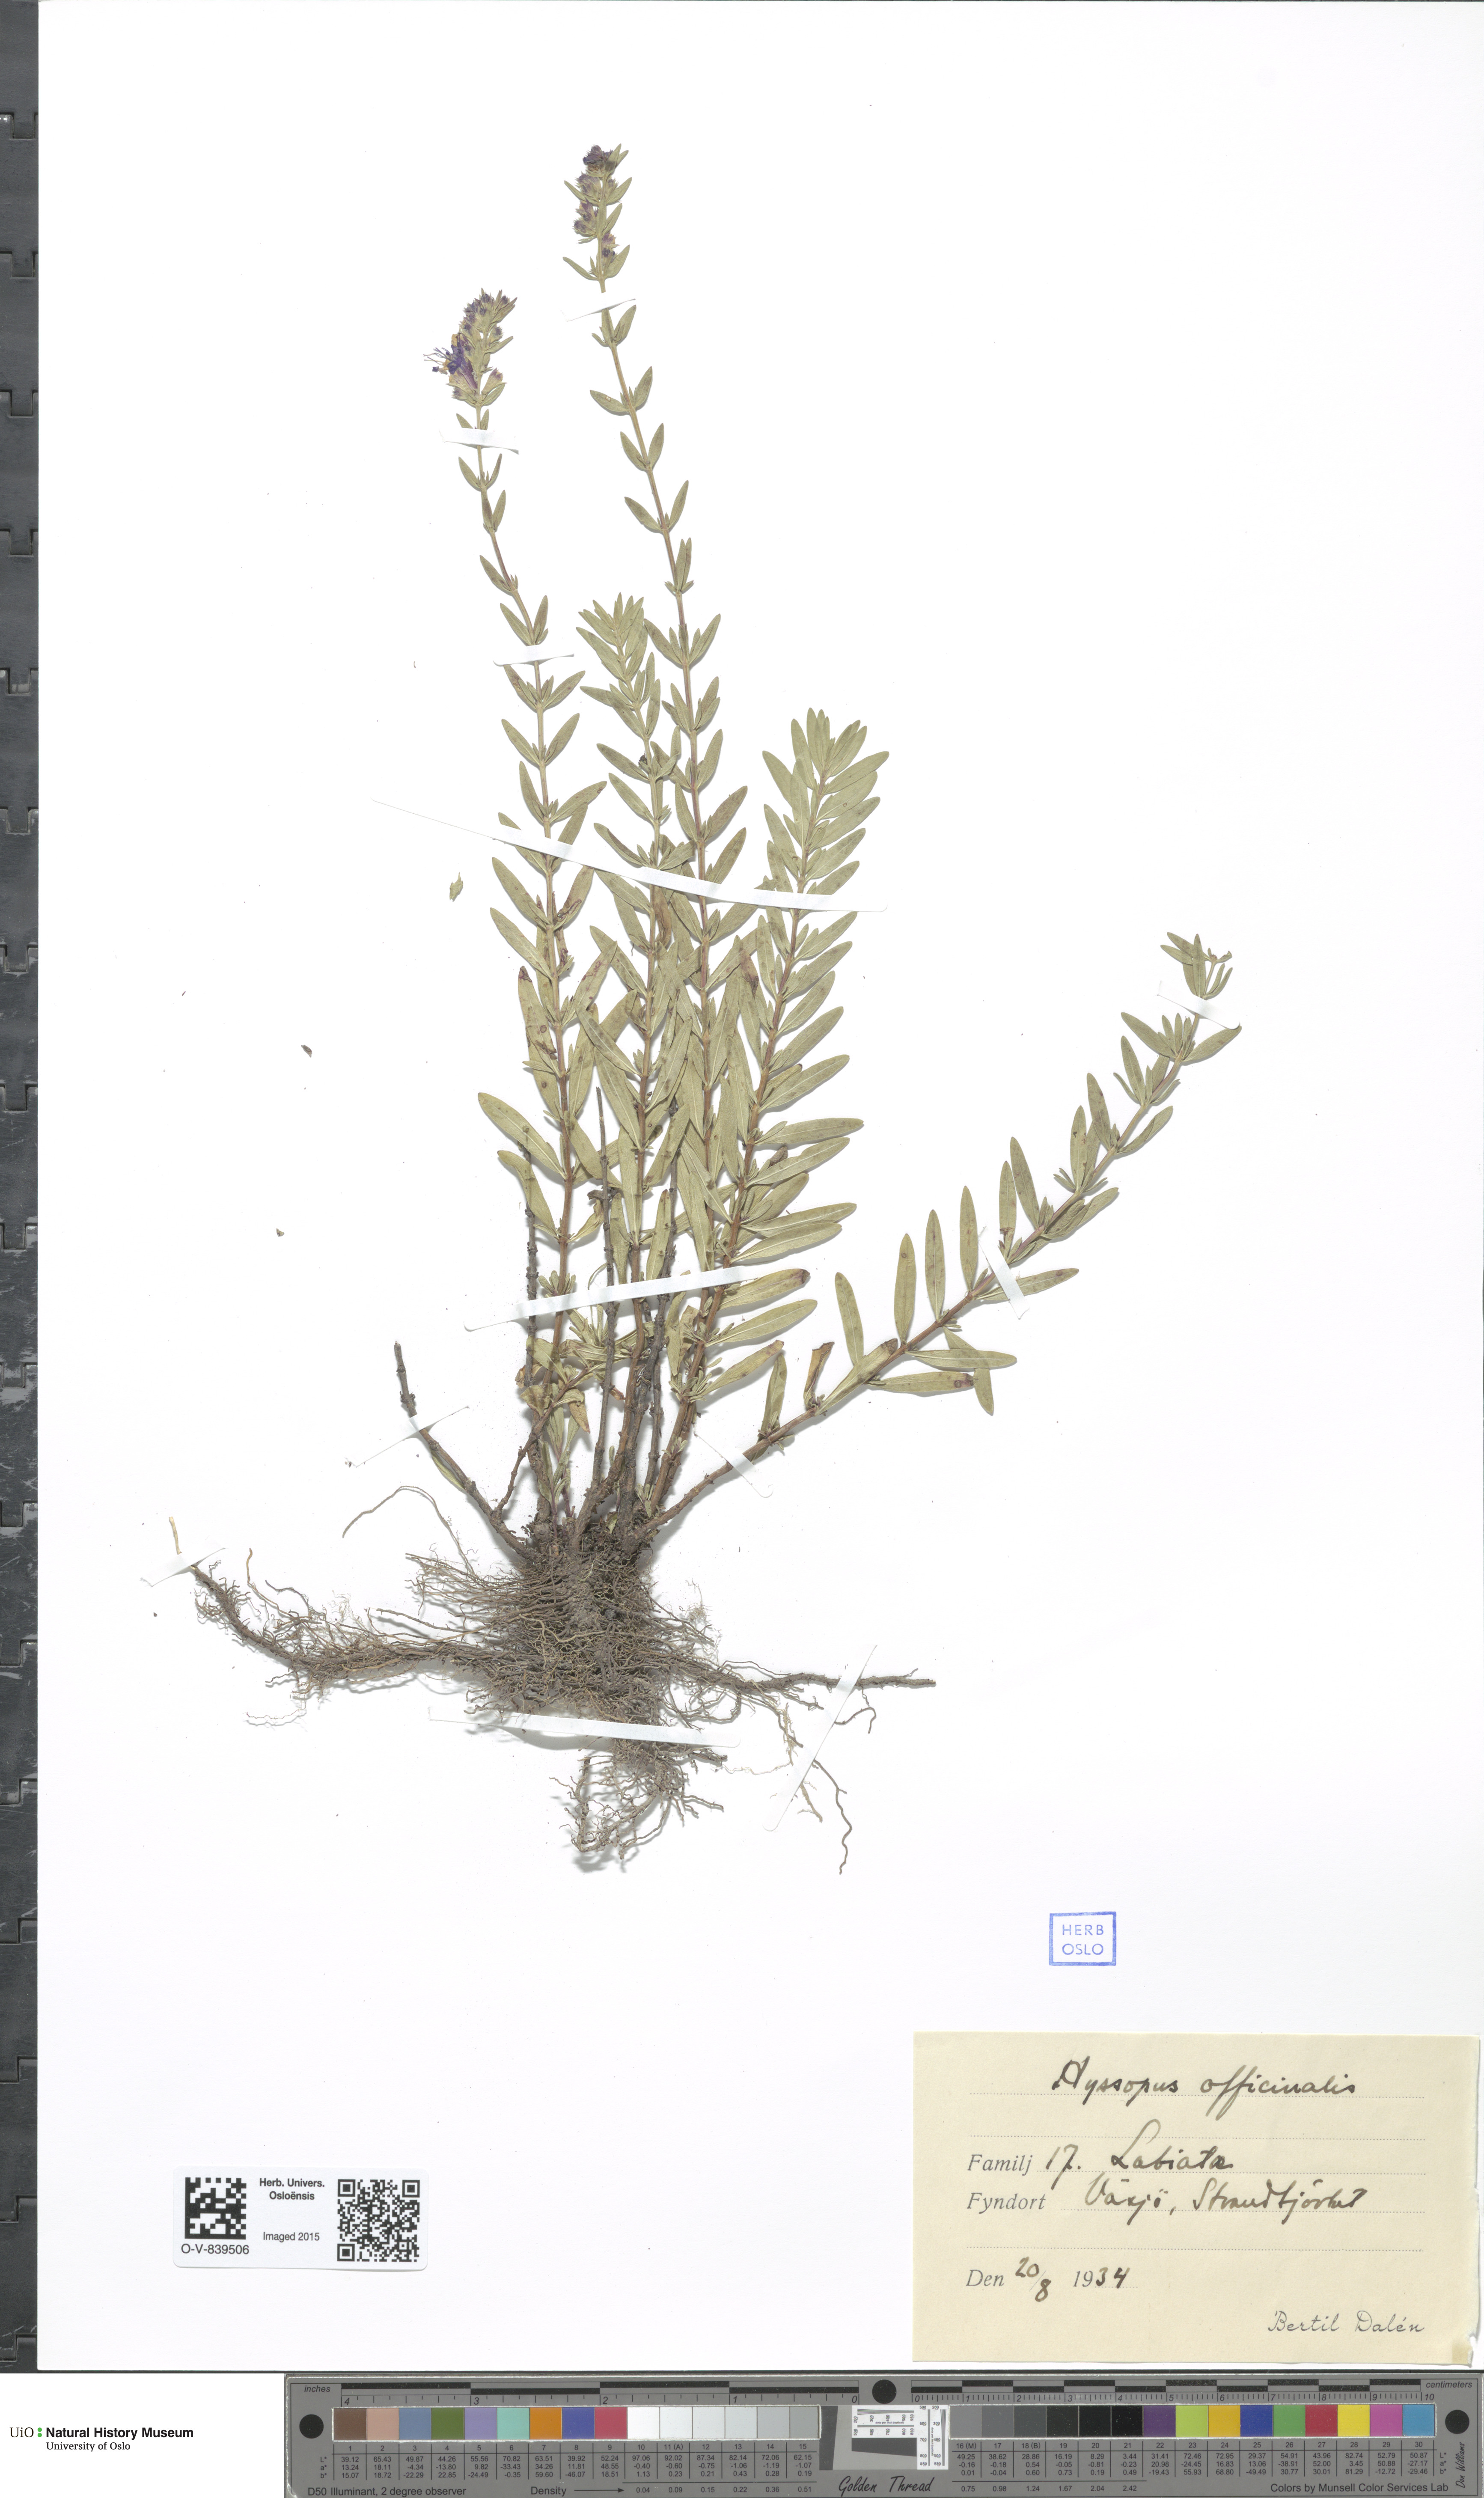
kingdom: Plantae
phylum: Tracheophyta
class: Magnoliopsida
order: Lamiales
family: Lamiaceae
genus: Hyssopus
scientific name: Hyssopus officinalis
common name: Hyssop
